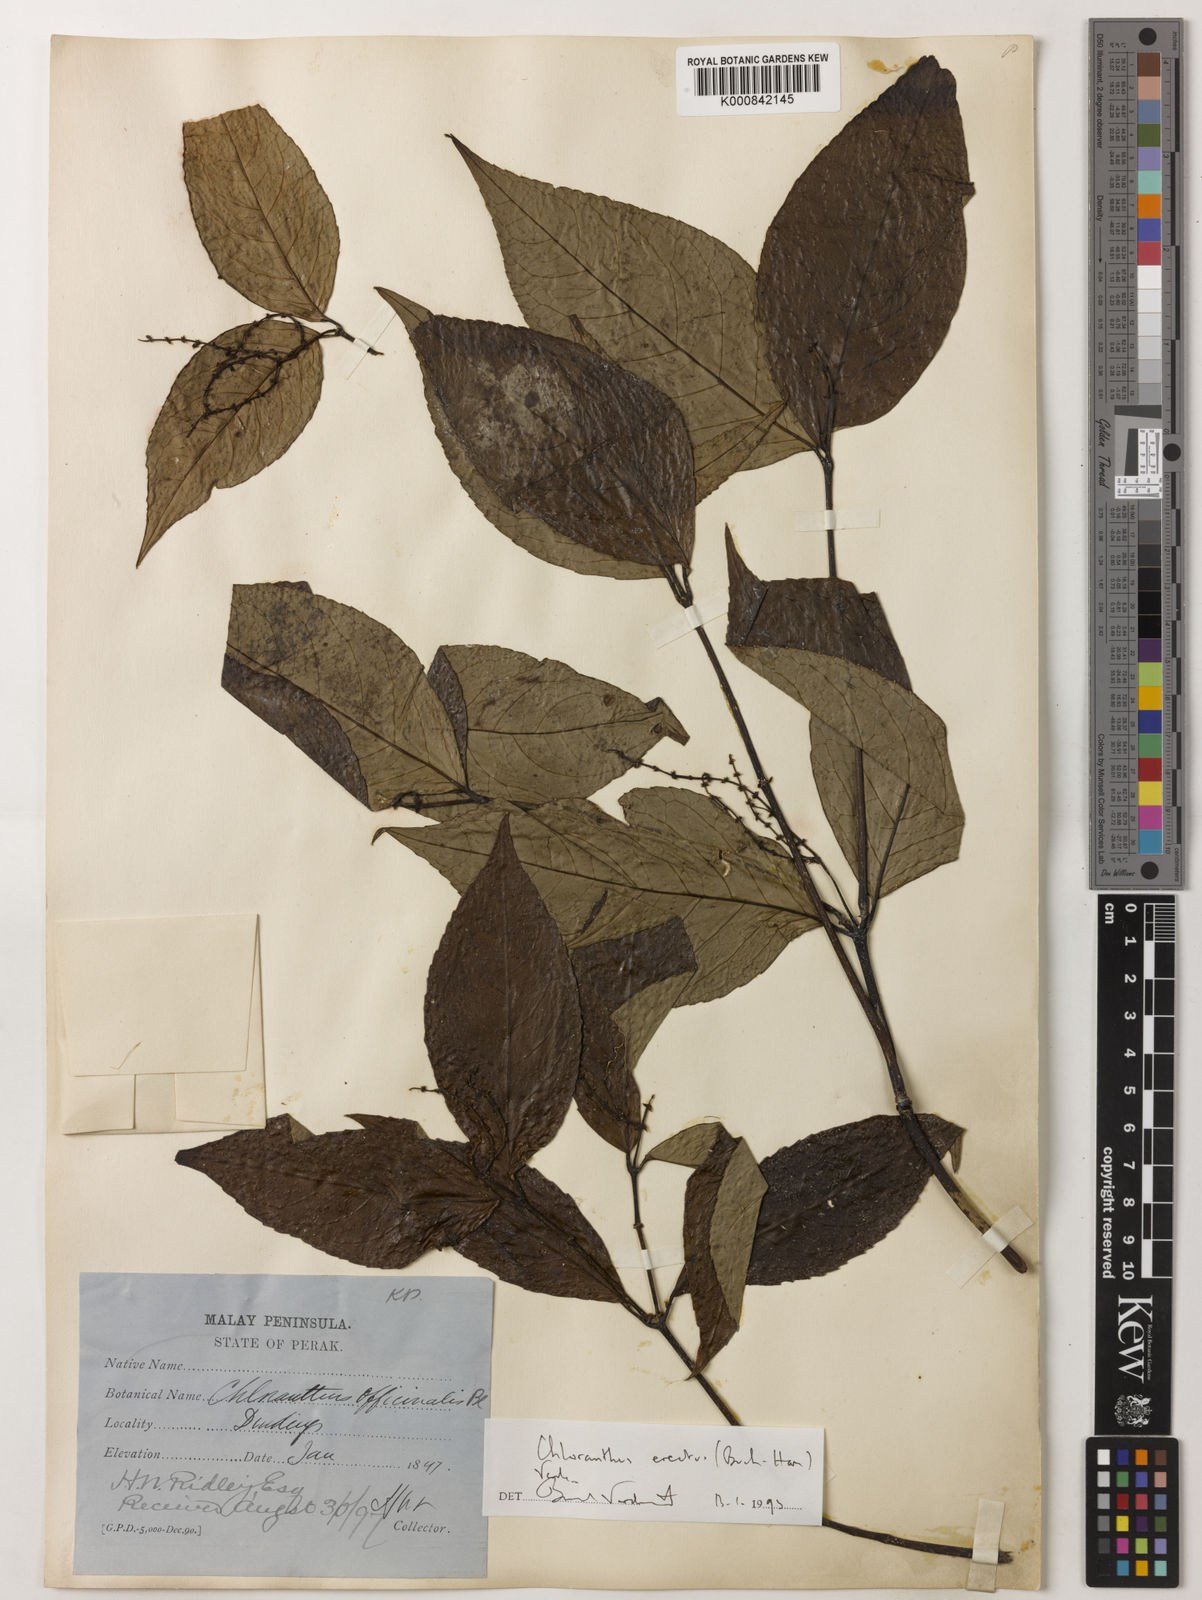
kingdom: Plantae
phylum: Tracheophyta
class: Magnoliopsida
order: Chloranthales
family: Chloranthaceae
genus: Chloranthus
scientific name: Chloranthus
